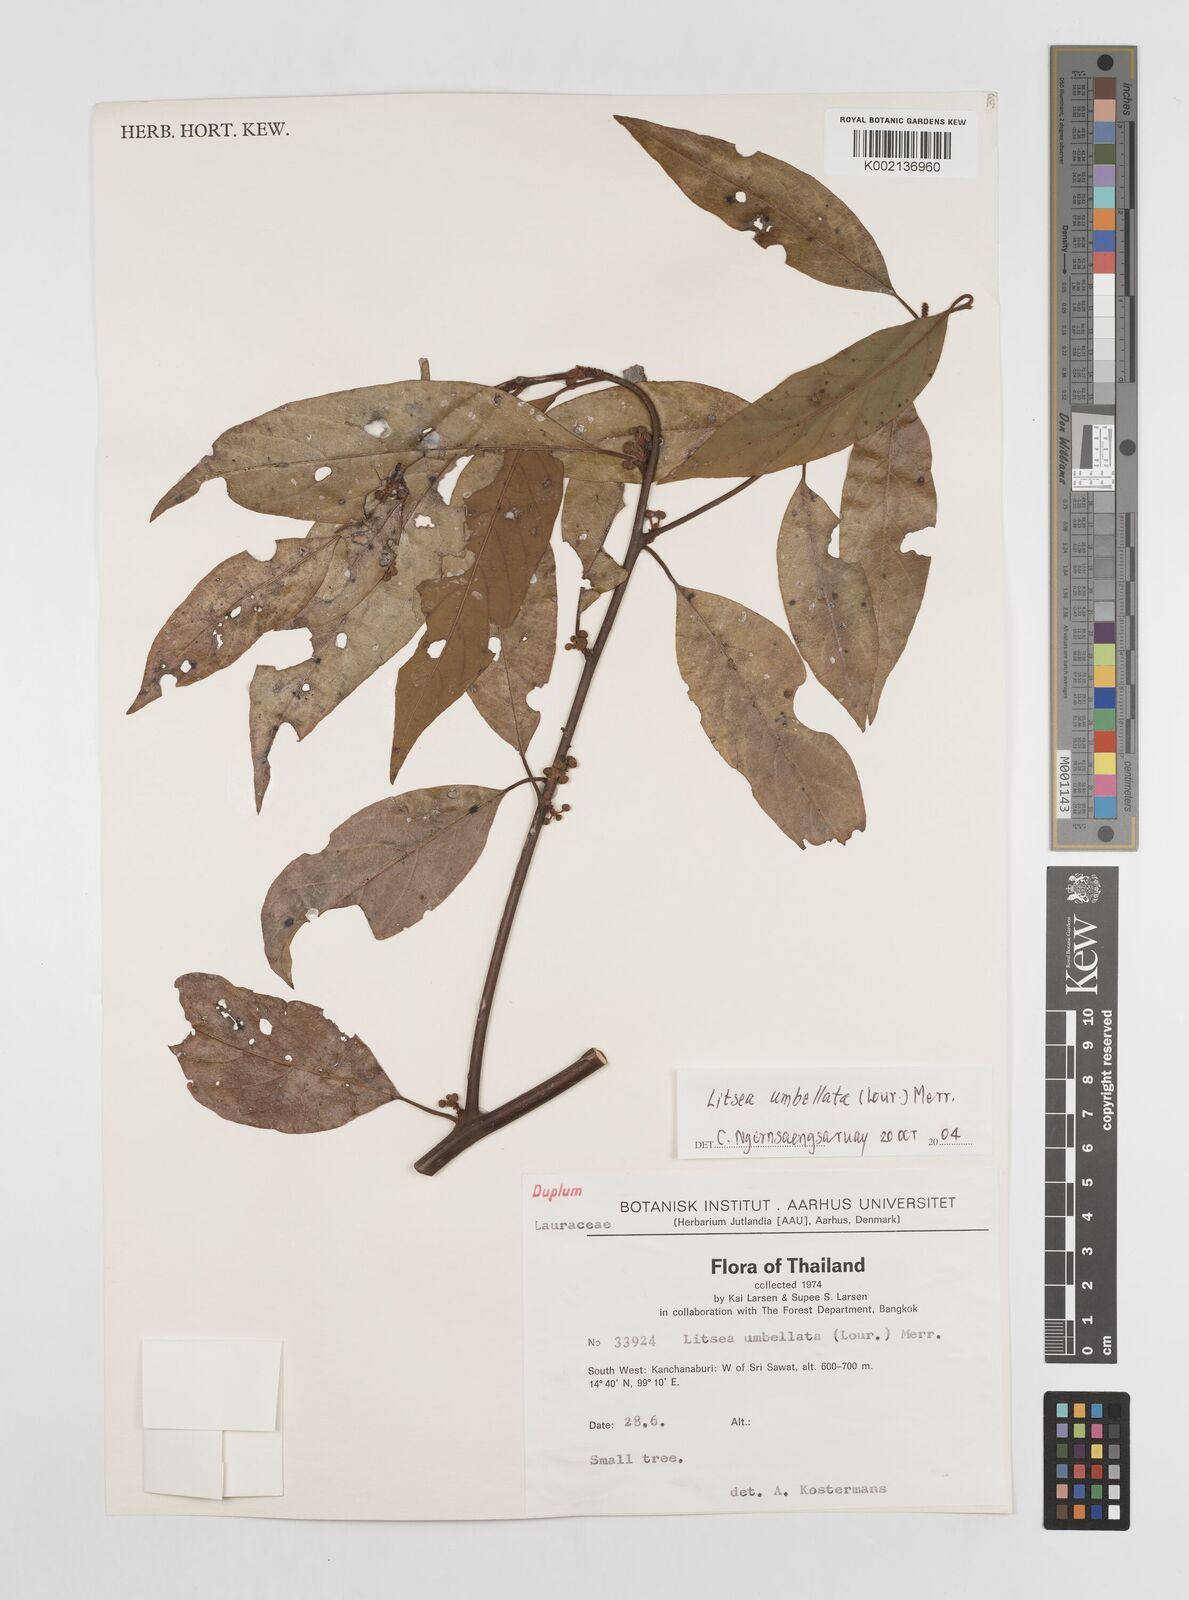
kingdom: Plantae
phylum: Tracheophyta
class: Magnoliopsida
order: Laurales
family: Lauraceae
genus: Litsea
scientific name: Litsea umbellata
